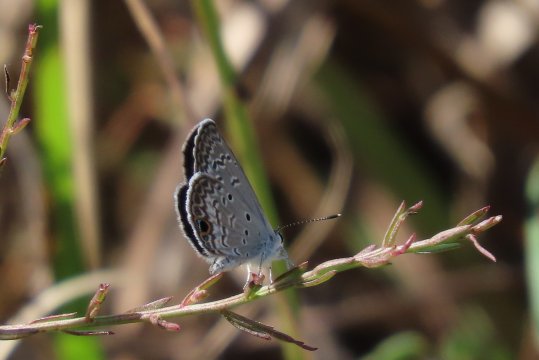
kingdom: Animalia
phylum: Arthropoda
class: Insecta
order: Lepidoptera
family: Lycaenidae
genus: Hemiargus
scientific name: Hemiargus ceraunus
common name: Ceraunus Blue
